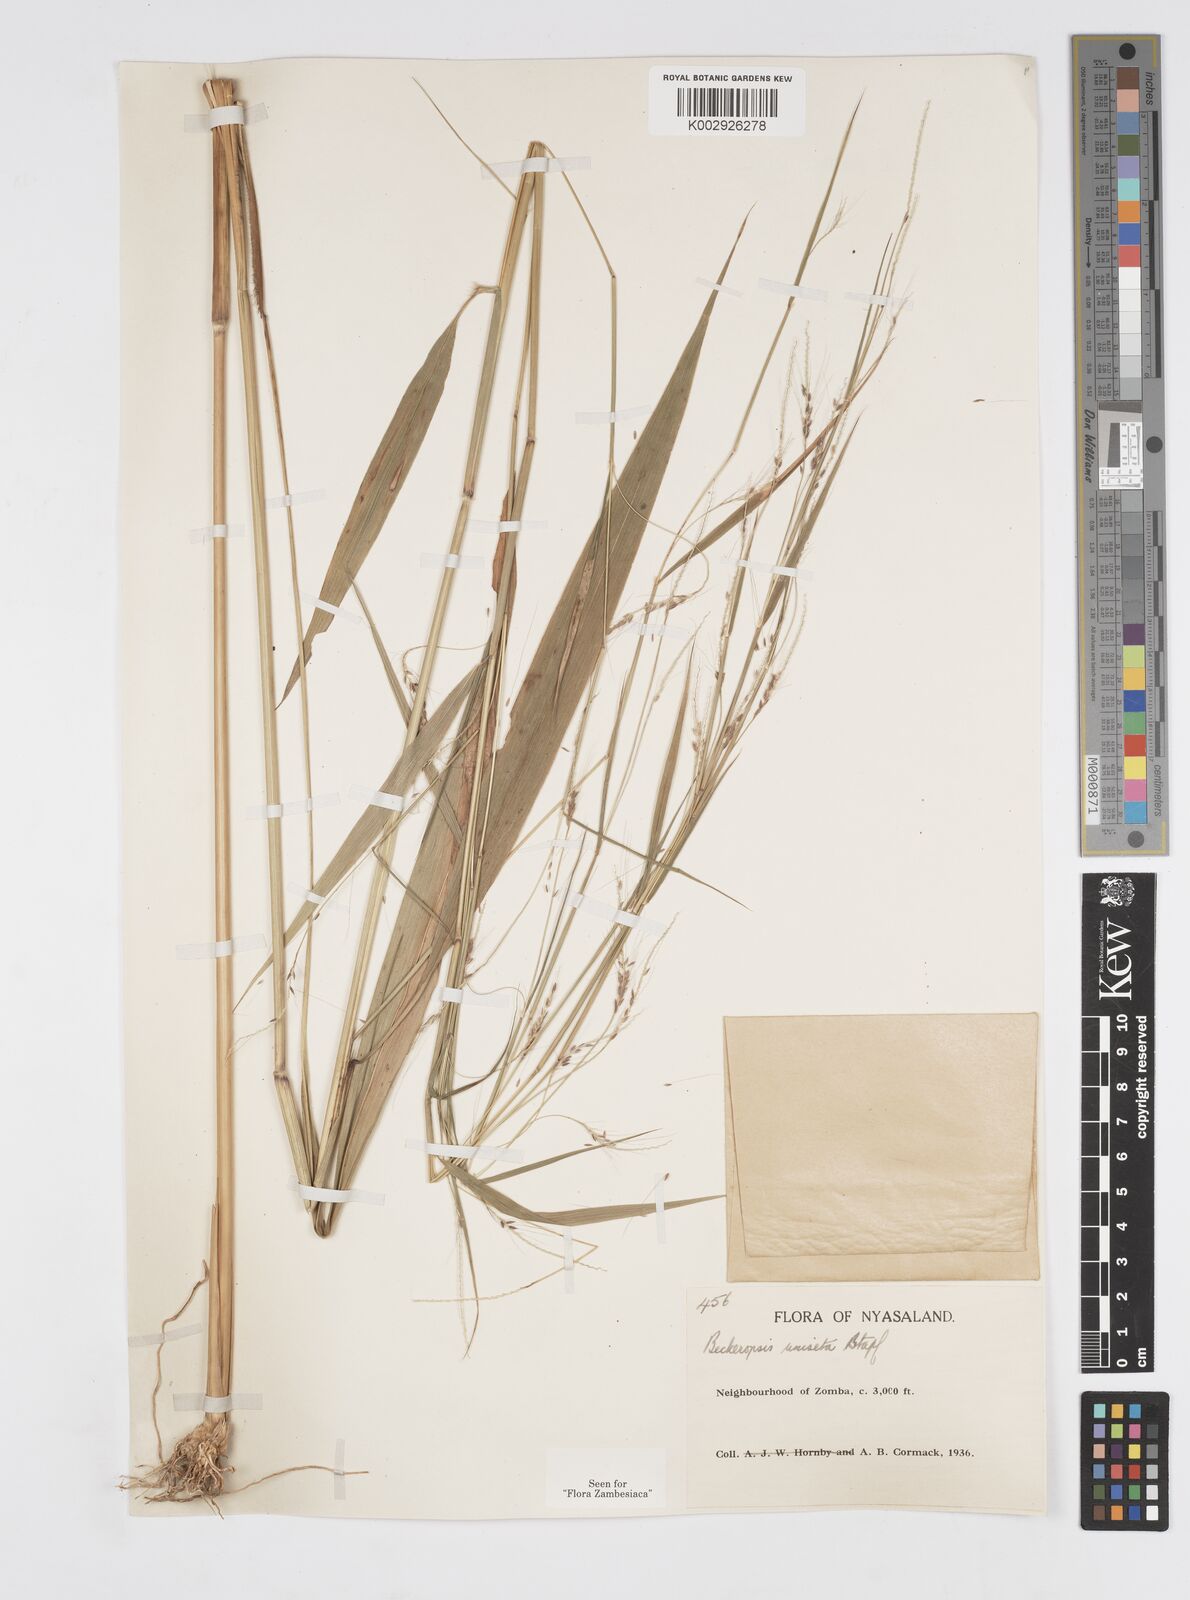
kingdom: Plantae
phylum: Tracheophyta
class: Liliopsida
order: Poales
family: Poaceae
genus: Cenchrus
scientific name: Cenchrus unisetus
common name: Natal grass
